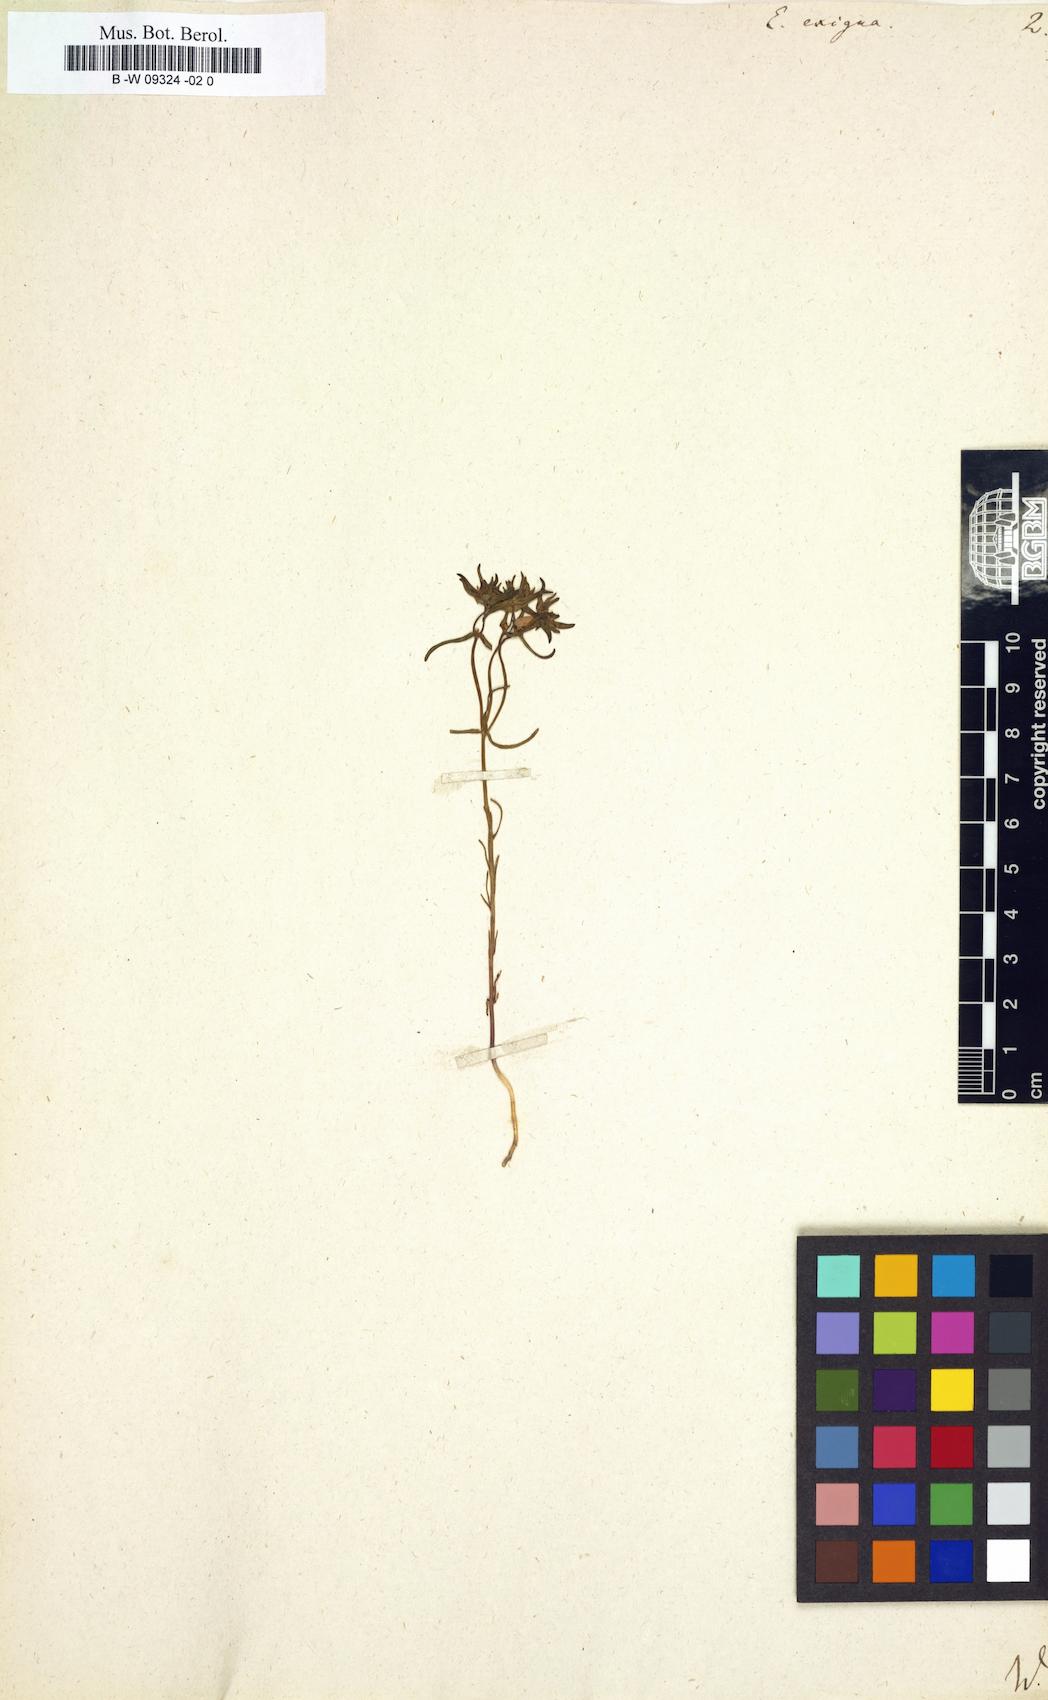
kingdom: Plantae
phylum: Tracheophyta
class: Magnoliopsida
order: Malpighiales
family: Euphorbiaceae
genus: Euphorbia
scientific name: Euphorbia exigua
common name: Dwarf spurge
